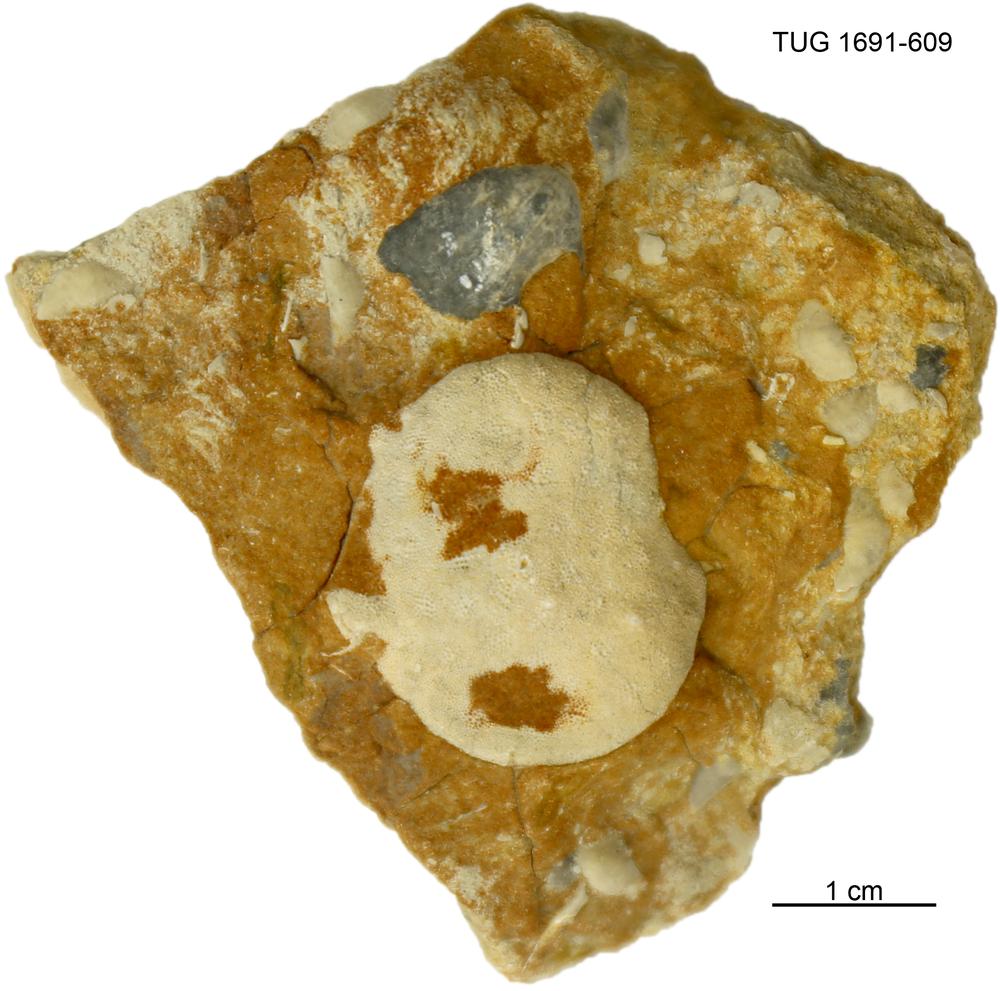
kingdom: Animalia
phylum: Bryozoa
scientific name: Bryozoa
